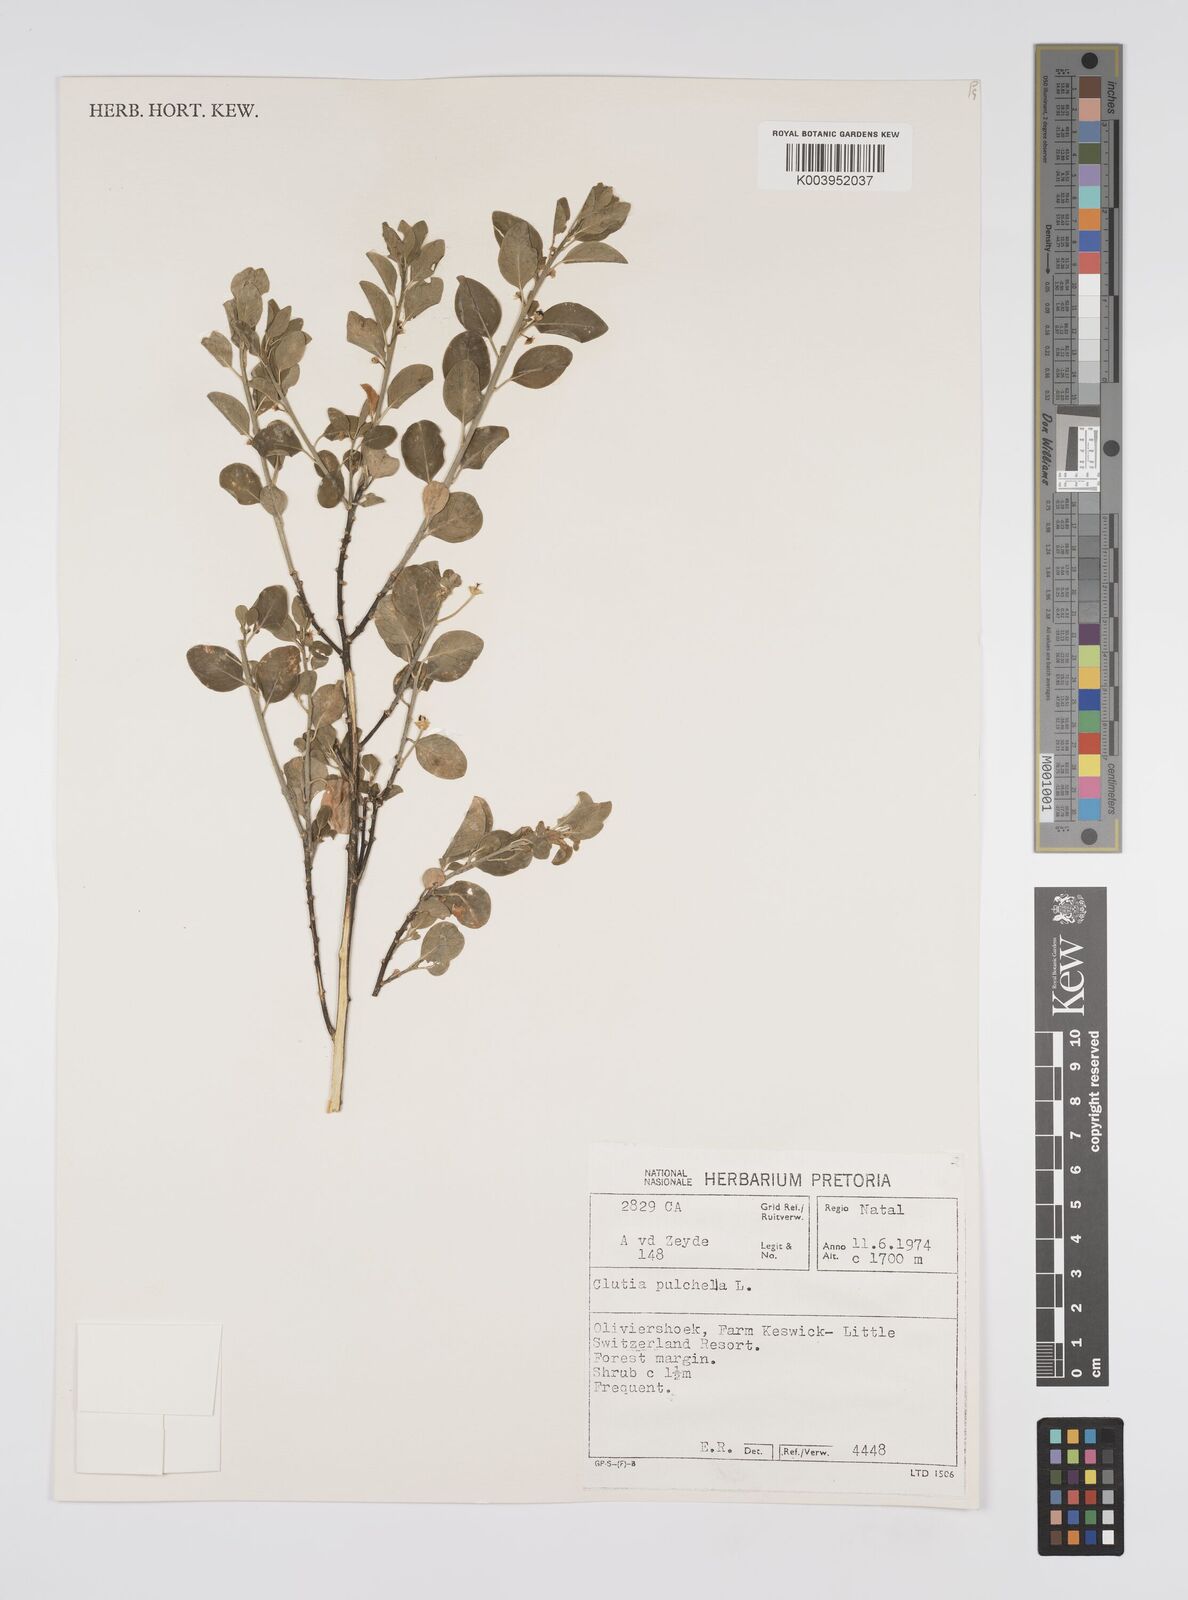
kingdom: Plantae
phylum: Tracheophyta
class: Magnoliopsida
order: Malpighiales
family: Peraceae
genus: Clutia
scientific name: Clutia pulchella
